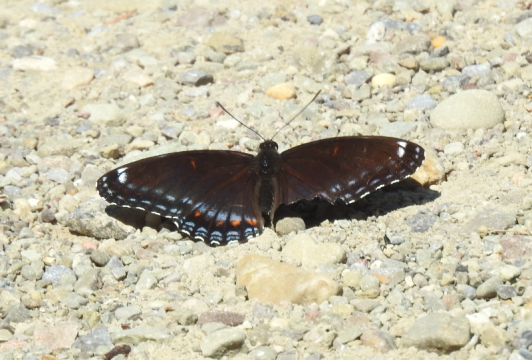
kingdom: Animalia
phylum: Arthropoda
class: Insecta
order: Lepidoptera
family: Nymphalidae
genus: Limenitis
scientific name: Limenitis arthemis
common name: Red-spotted Admiral
